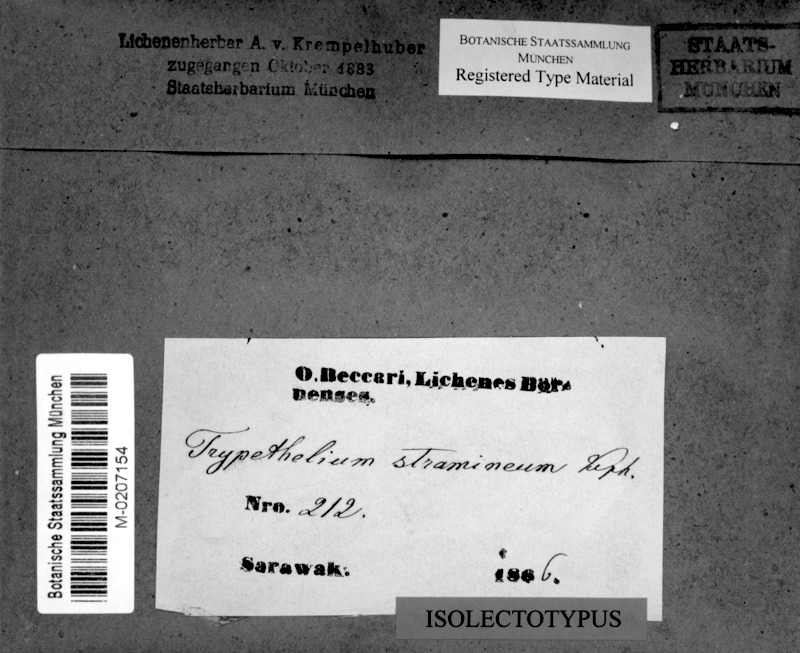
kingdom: Fungi
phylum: Ascomycota
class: Dothideomycetes
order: Trypetheliales
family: Trypetheliaceae
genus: Trypethelium
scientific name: Trypethelium stramineum
